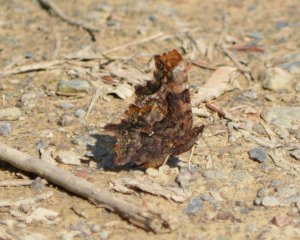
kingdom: Animalia
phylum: Arthropoda
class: Insecta
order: Lepidoptera
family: Nymphalidae
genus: Polygonia
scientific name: Polygonia faunus
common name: Green Comma
